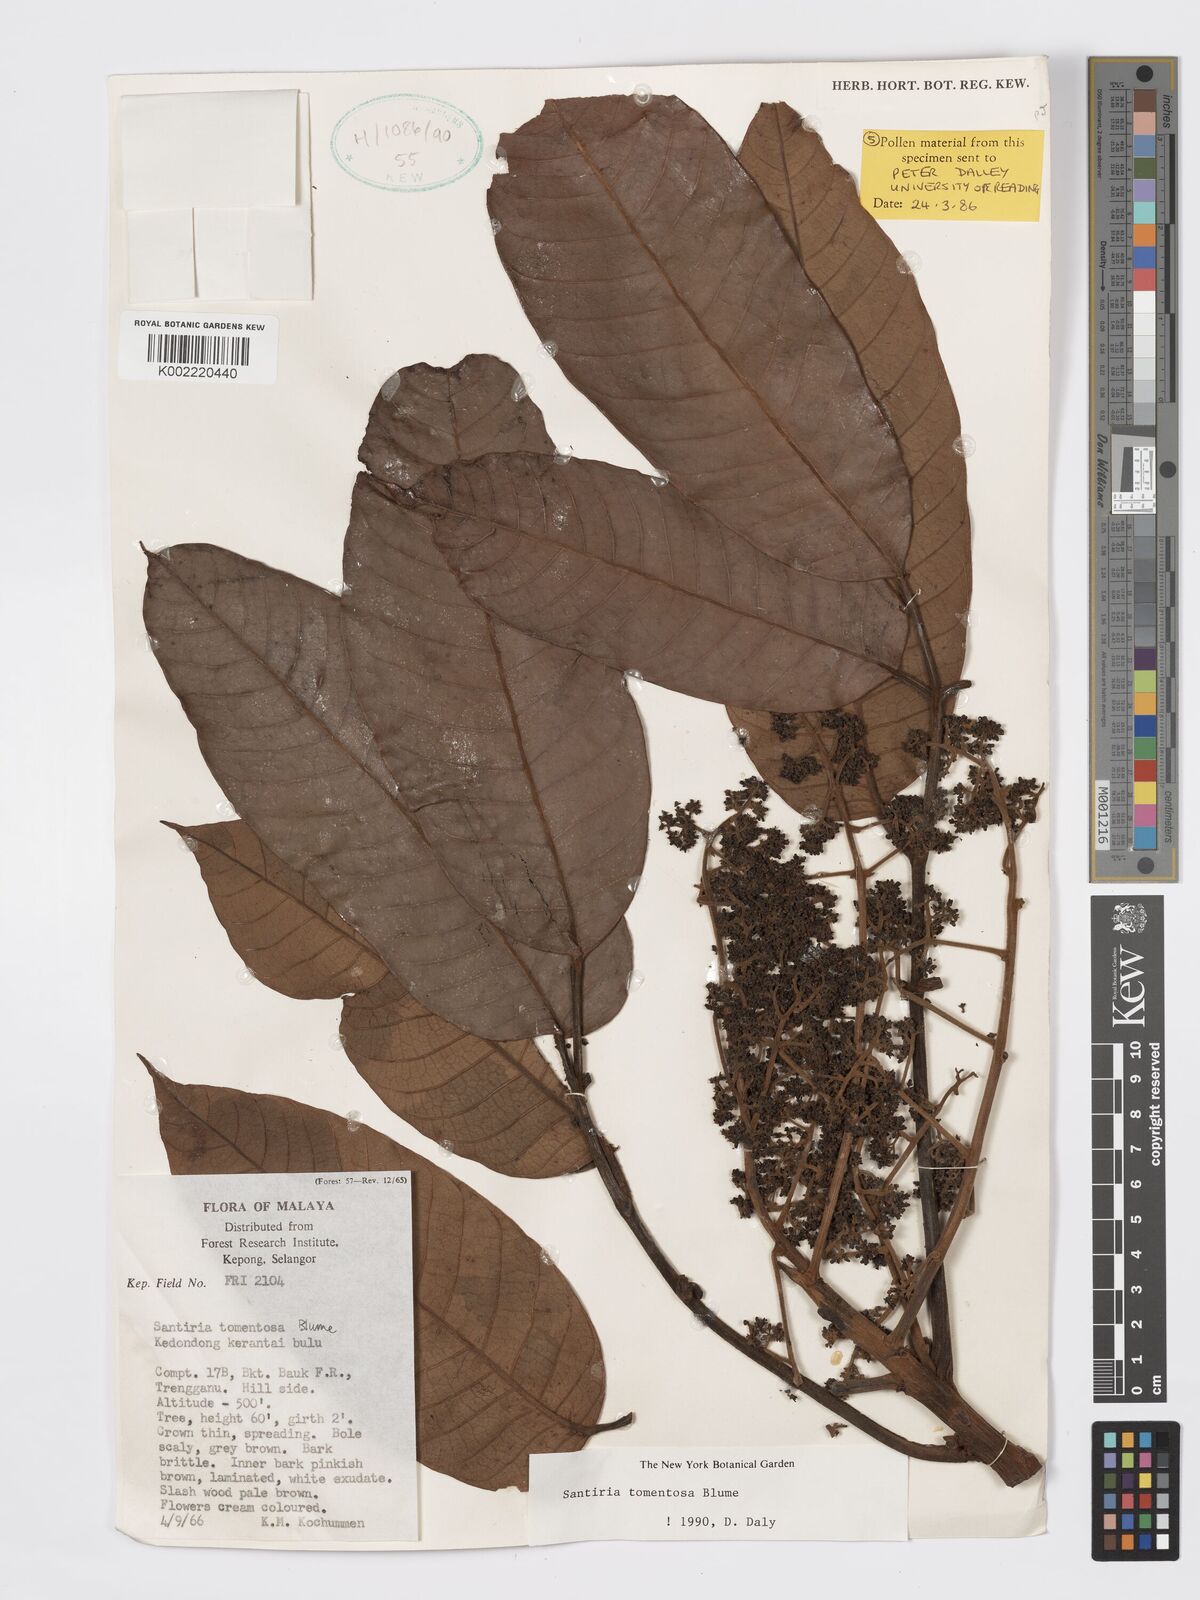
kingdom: Plantae
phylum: Tracheophyta
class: Magnoliopsida
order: Sapindales
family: Burseraceae
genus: Santiria
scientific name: Santiria tomentosa
